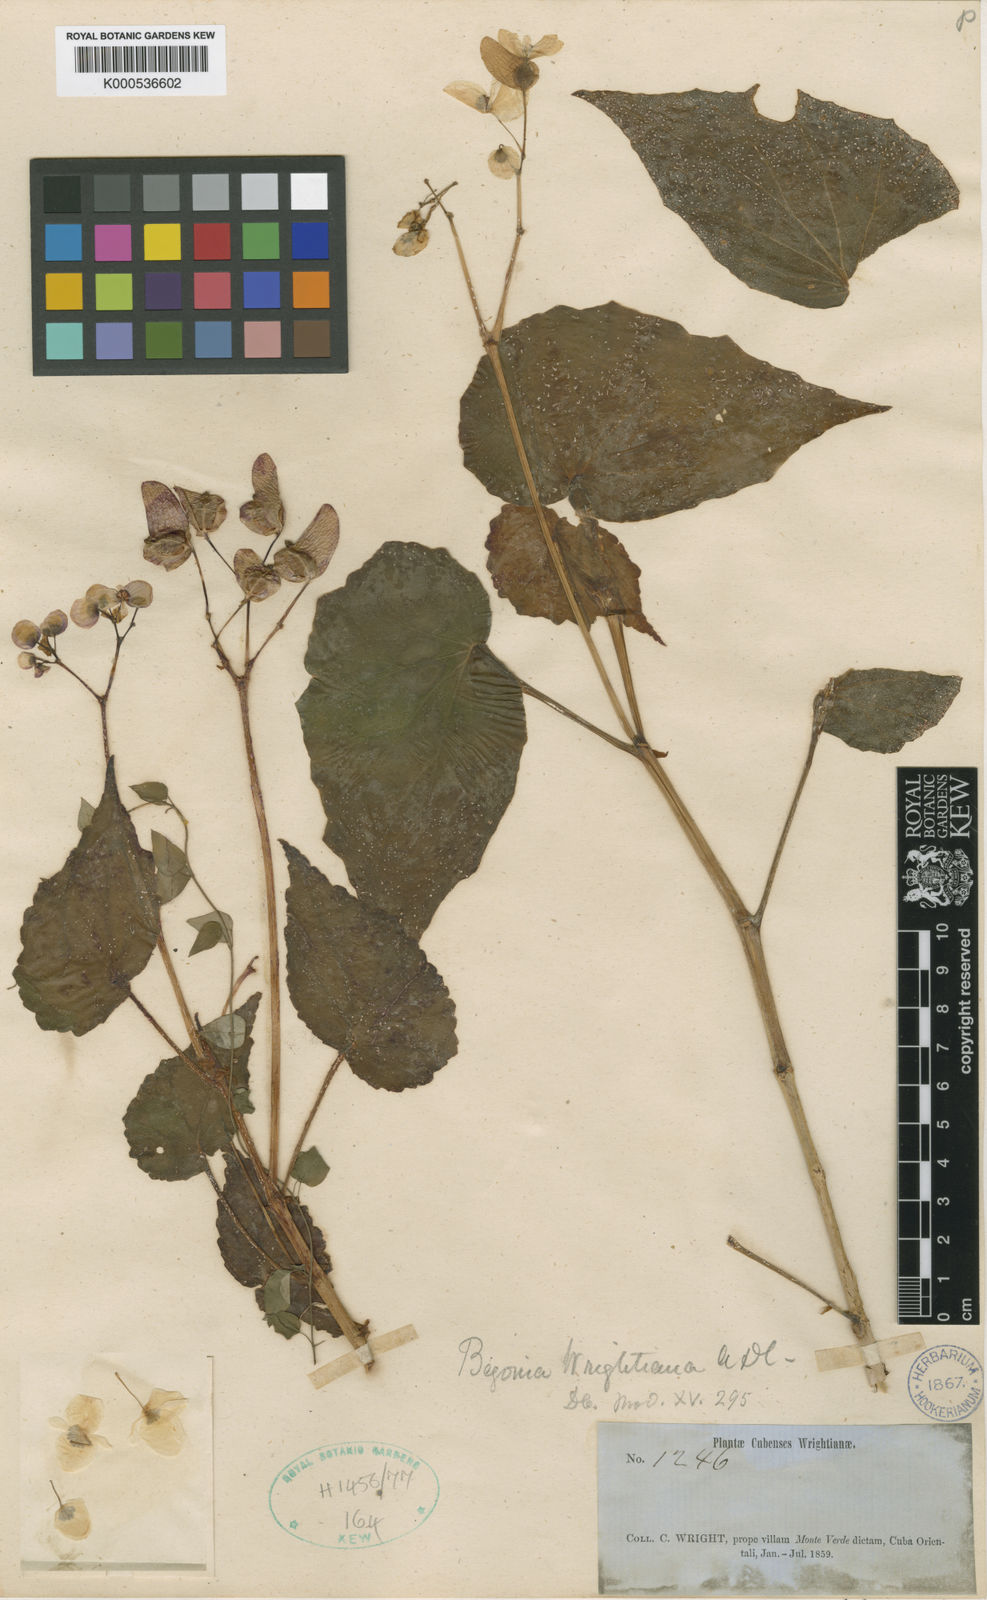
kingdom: Plantae
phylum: Tracheophyta
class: Magnoliopsida
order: Cucurbitales
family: Begoniaceae
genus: Begonia
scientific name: Begonia wrightiana
